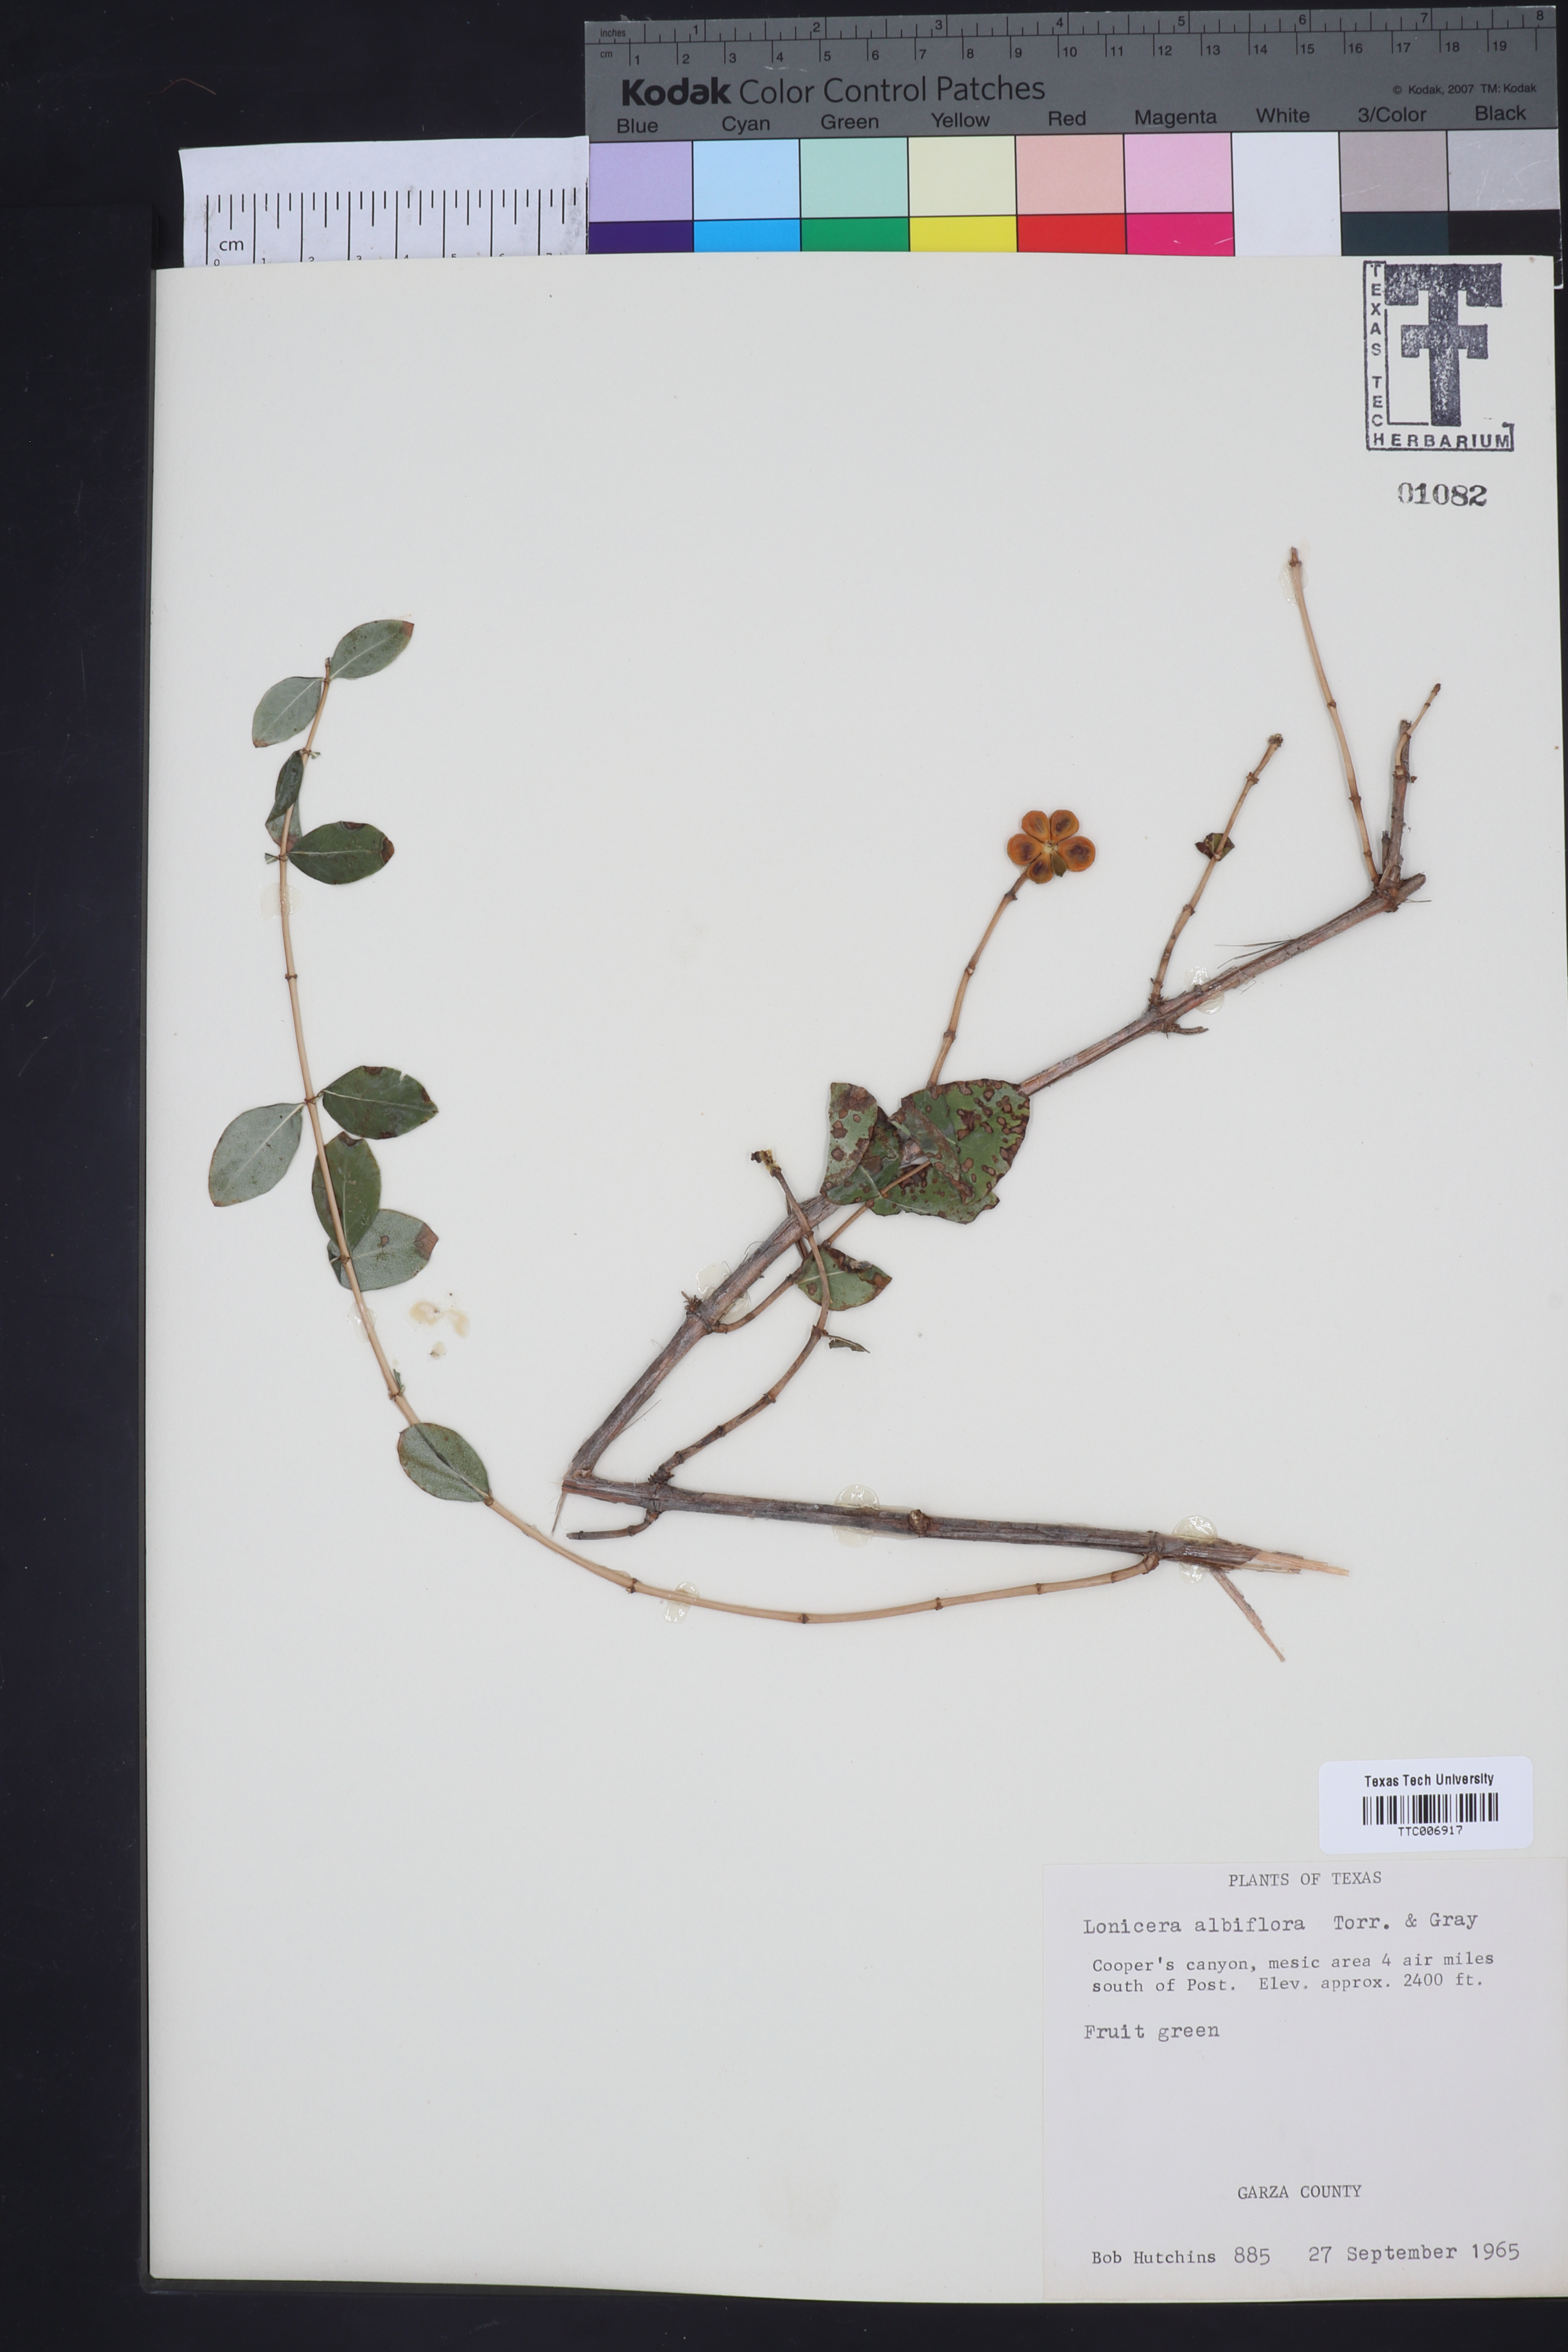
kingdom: Plantae
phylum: Tracheophyta
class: Magnoliopsida
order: Dipsacales
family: Caprifoliaceae
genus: Lonicera
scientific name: Lonicera albiflora
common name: White honeysuckle
